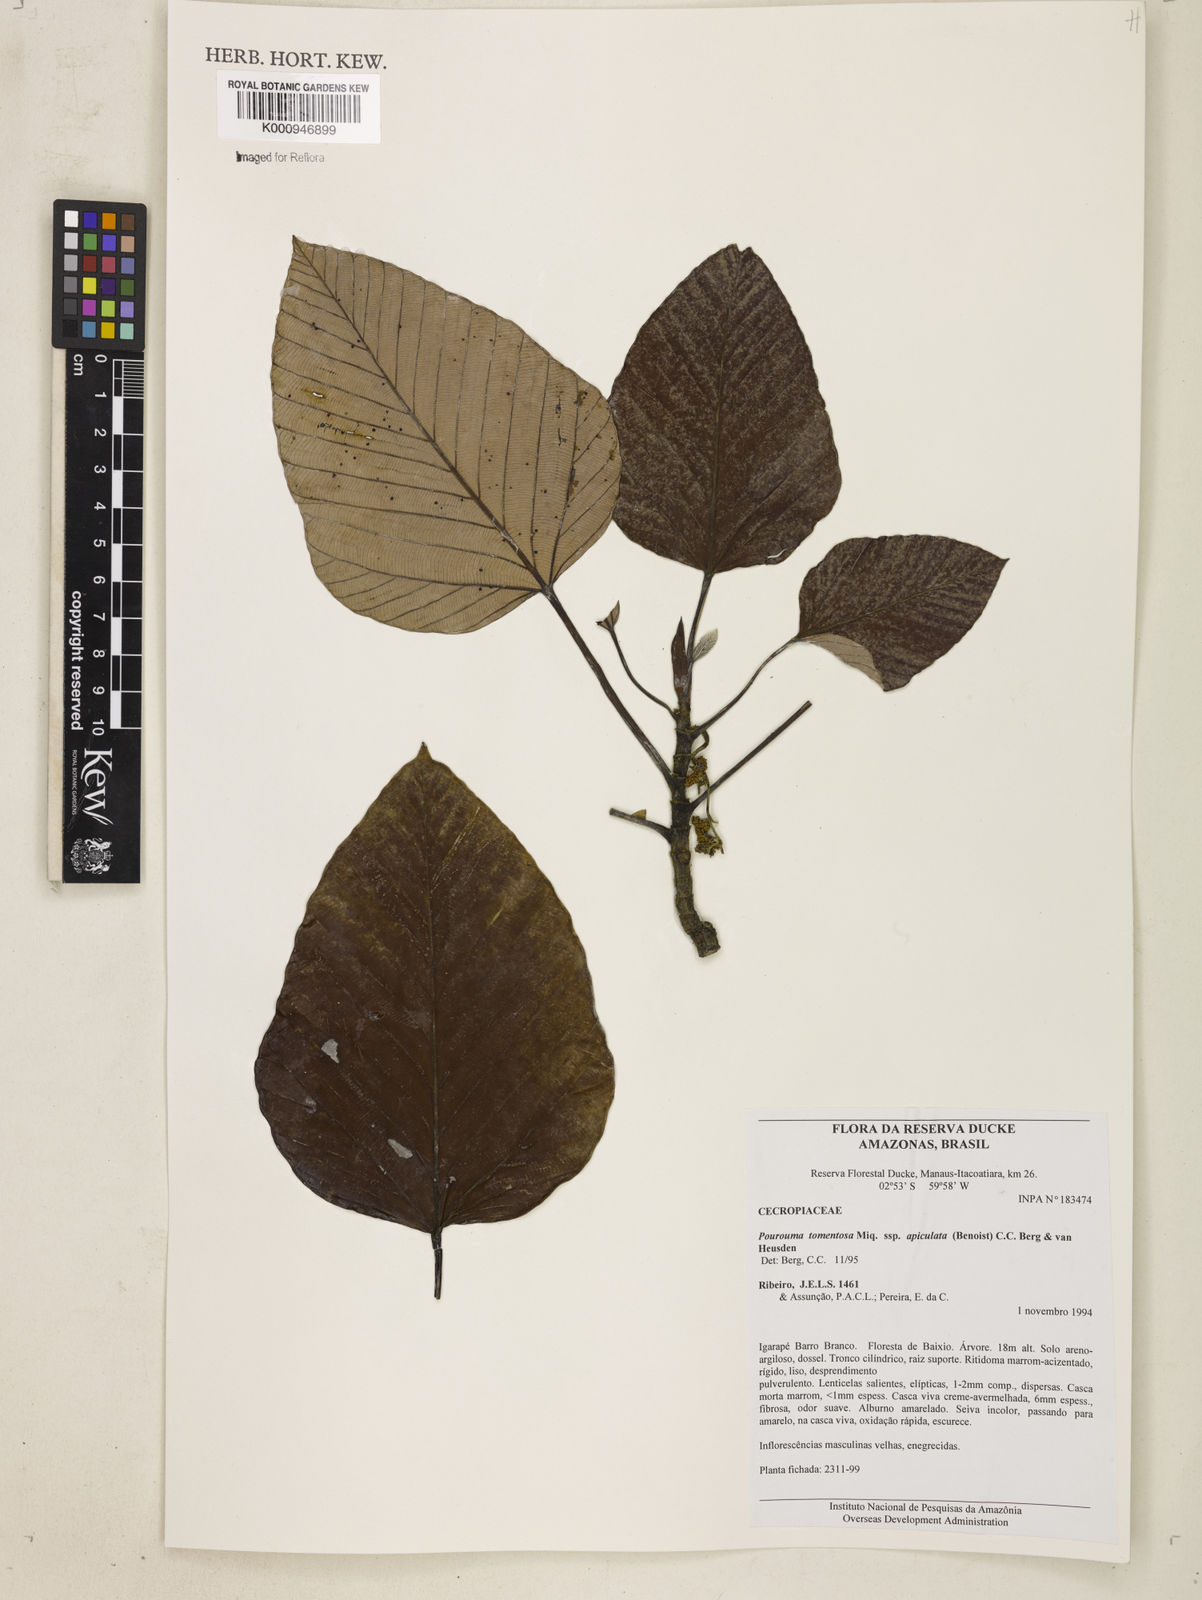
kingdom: Plantae
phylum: Tracheophyta
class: Magnoliopsida
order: Rosales
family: Urticaceae
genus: Pourouma
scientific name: Pourouma tomentosa
